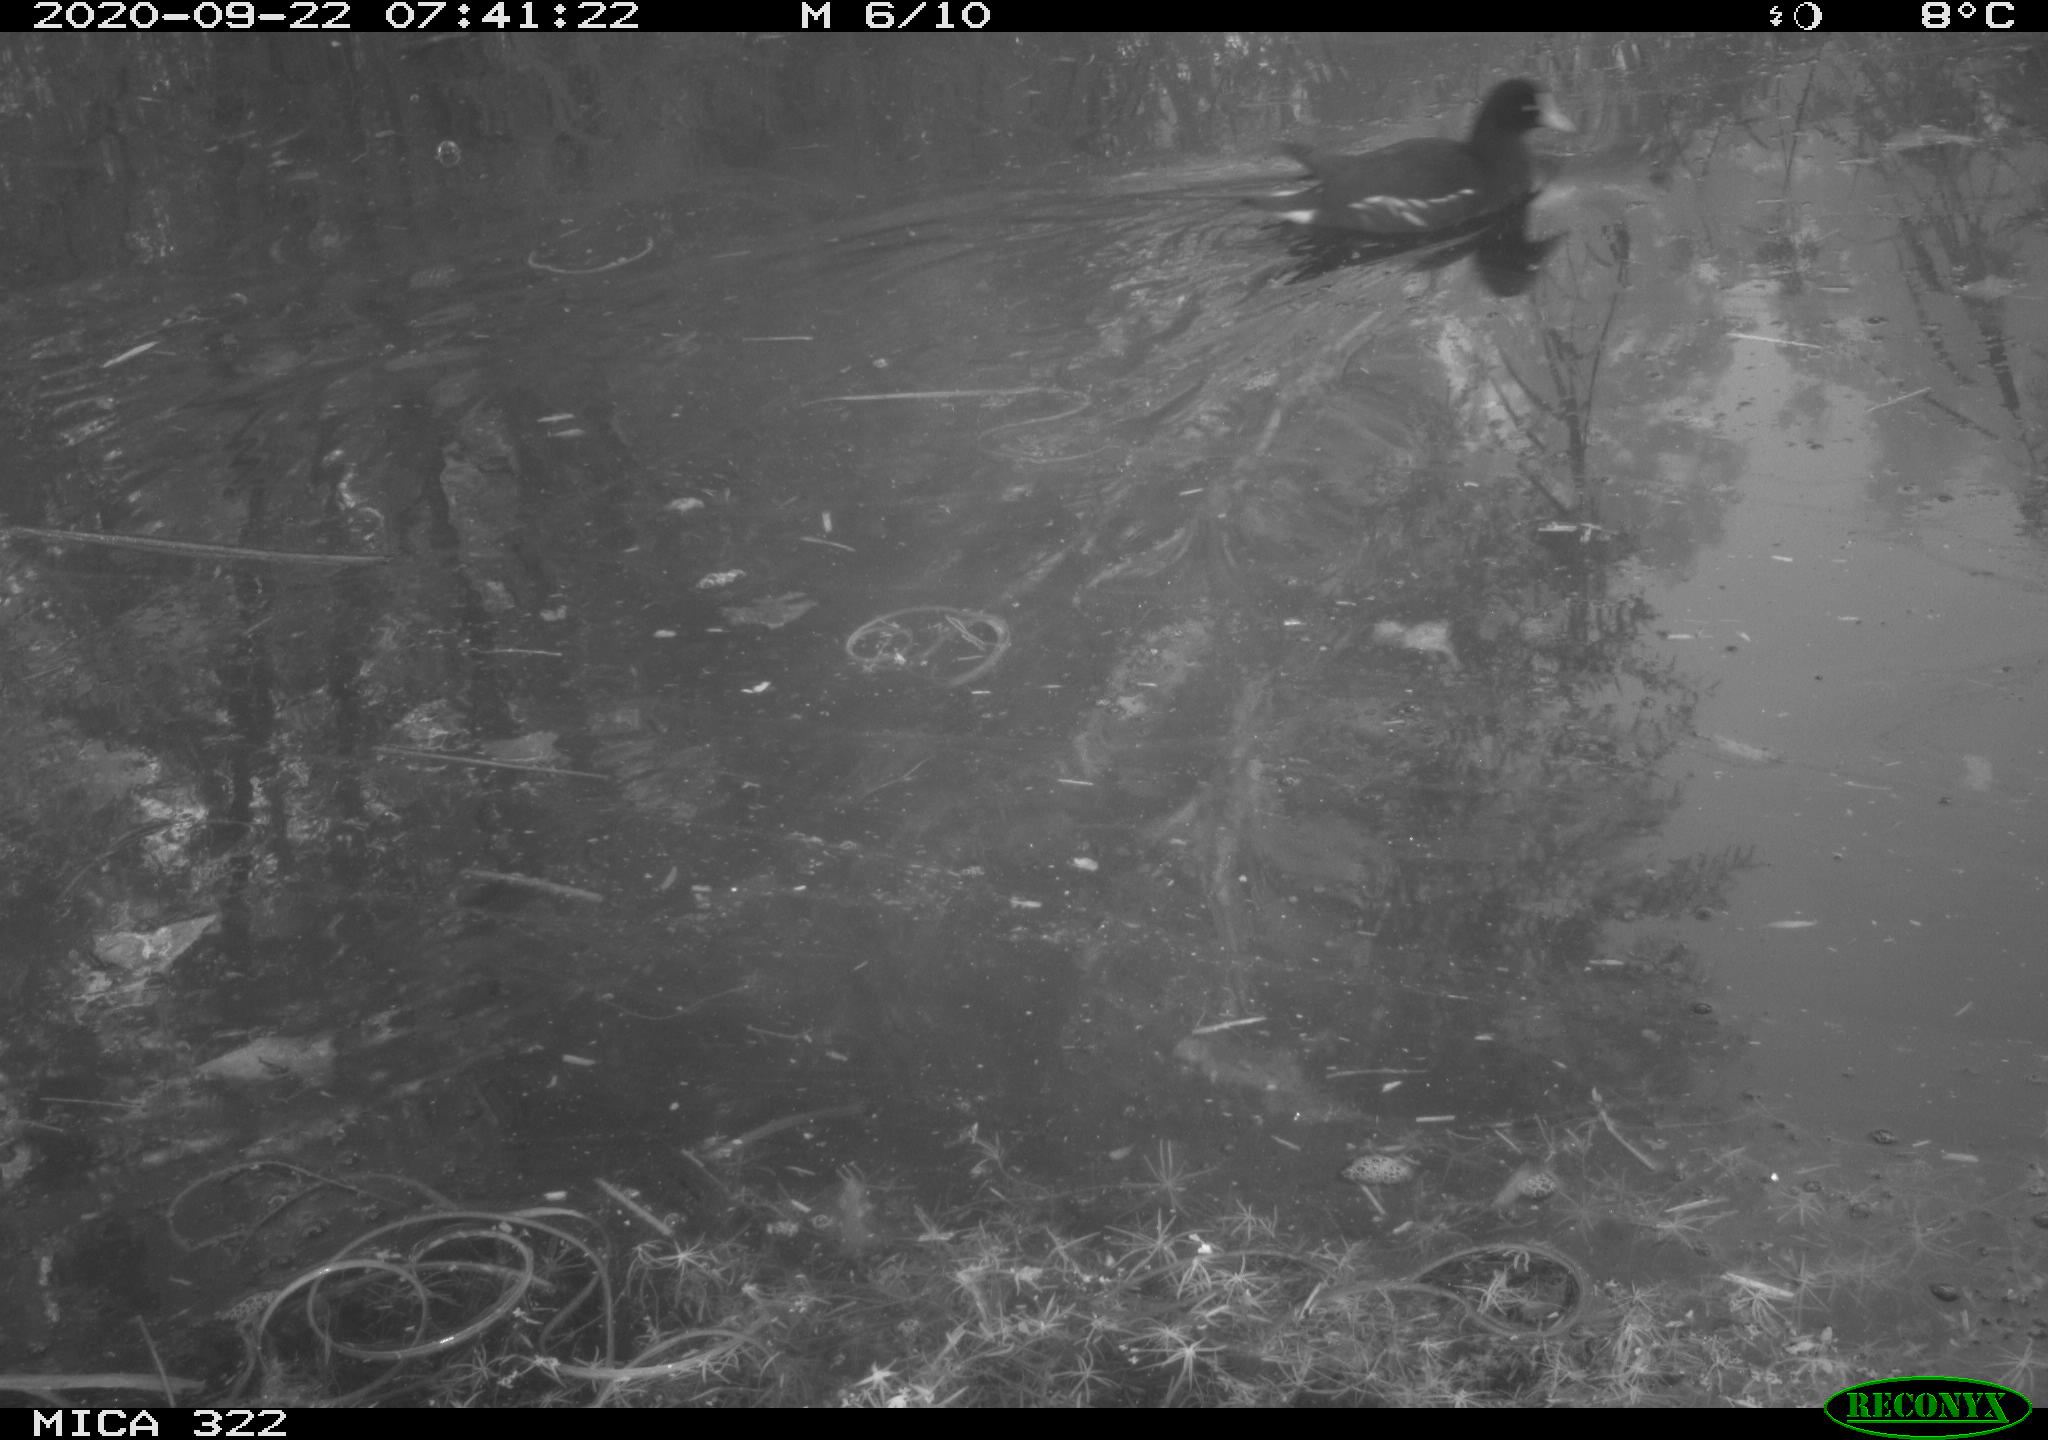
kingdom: Animalia
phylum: Chordata
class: Aves
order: Gruiformes
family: Rallidae
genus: Gallinula
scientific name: Gallinula chloropus
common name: Common moorhen
